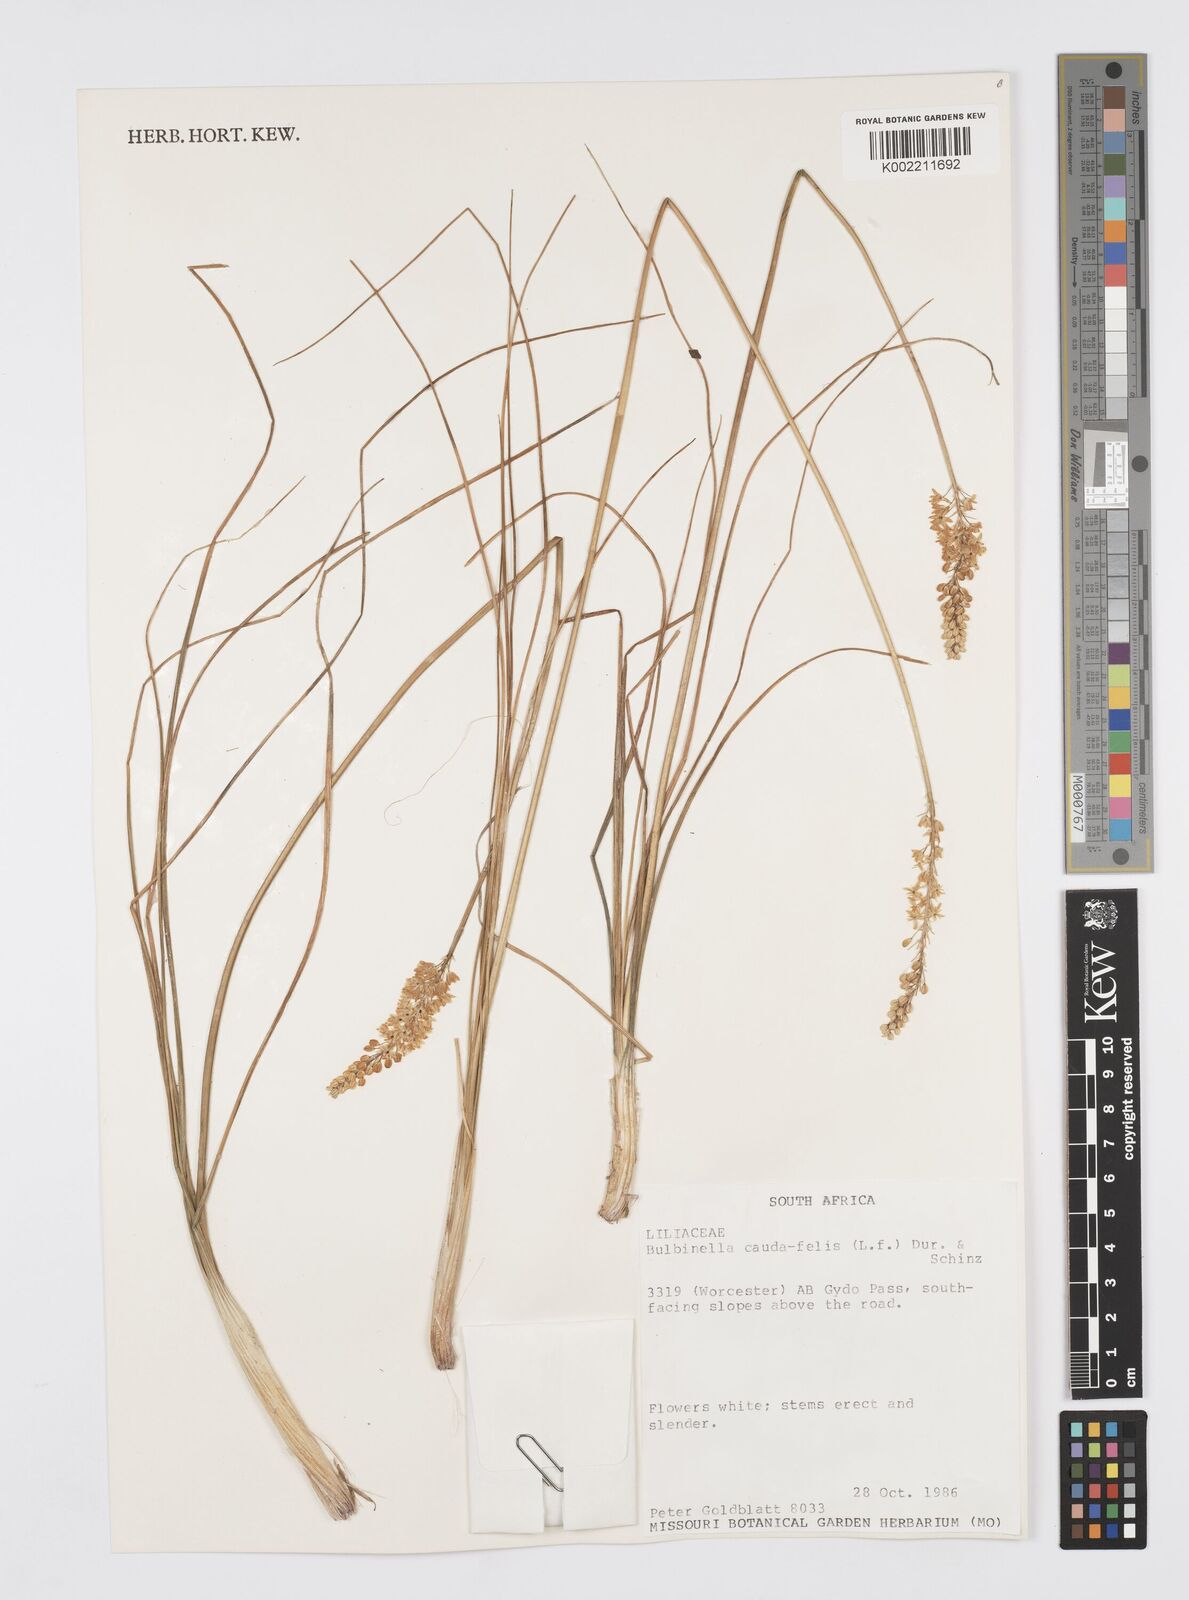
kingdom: Plantae
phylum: Tracheophyta
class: Liliopsida
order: Asparagales
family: Asphodelaceae
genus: Bulbinella
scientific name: Bulbinella cauda-felis
